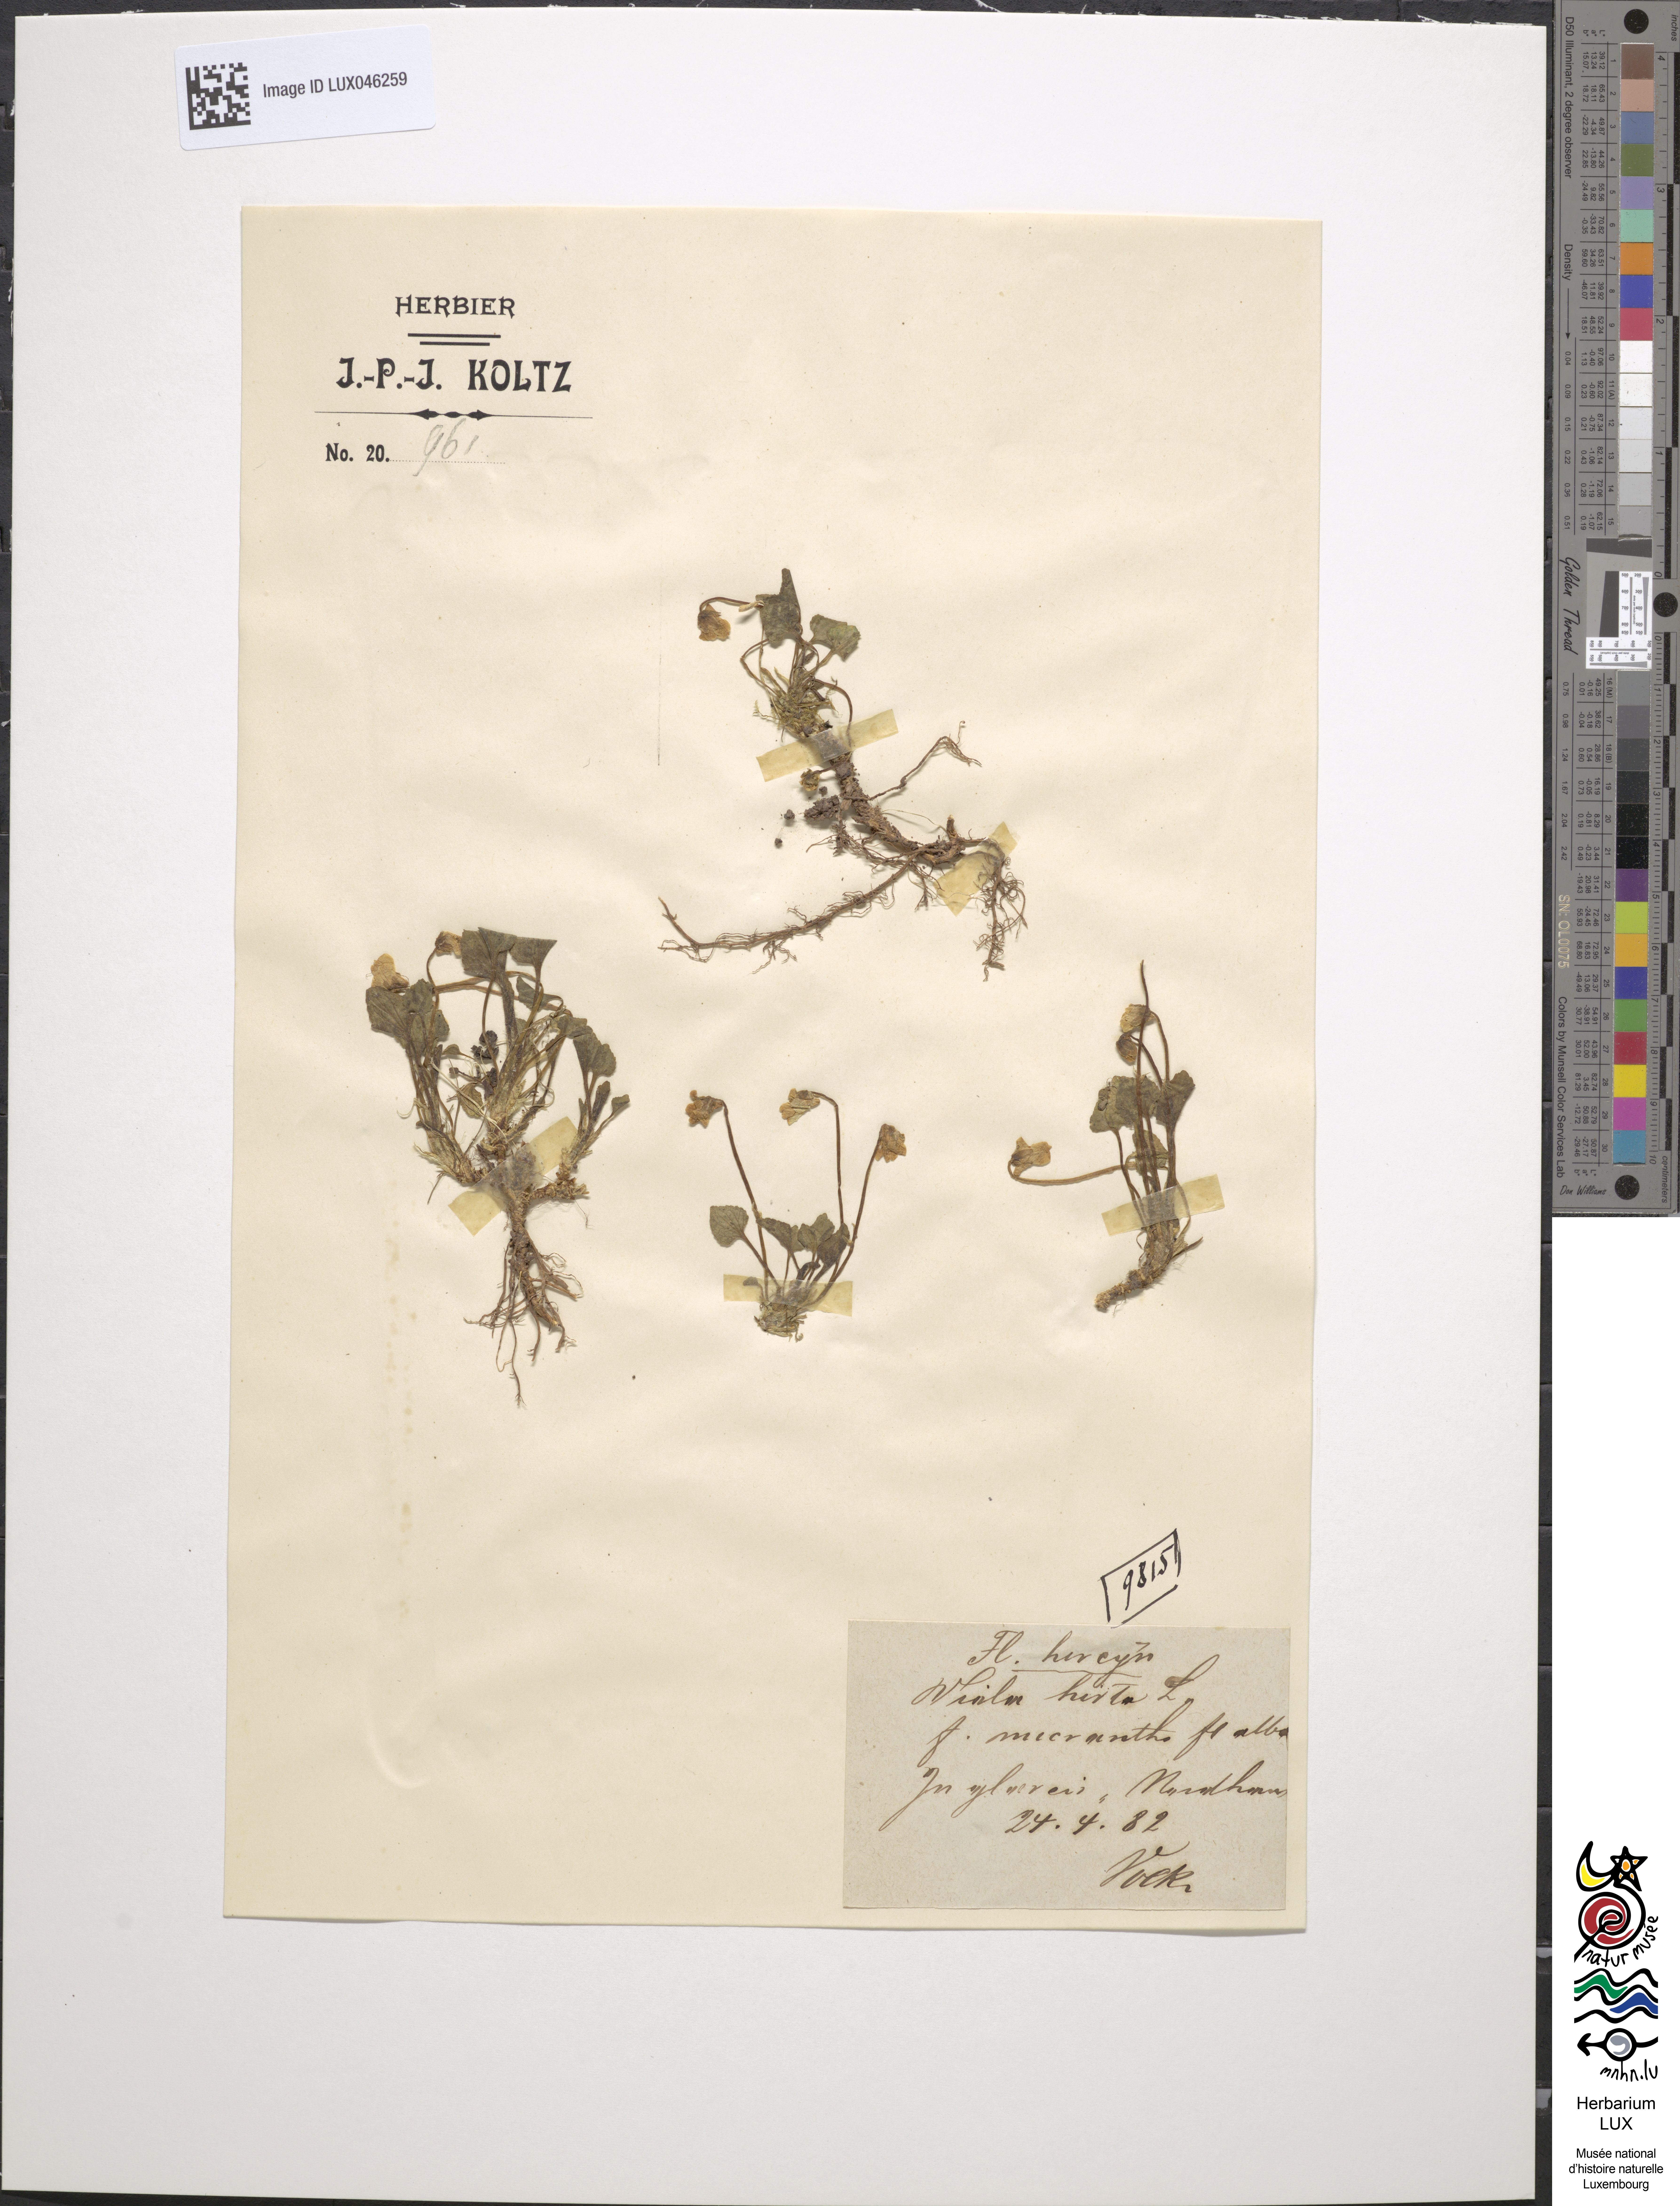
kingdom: Plantae
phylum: Tracheophyta
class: Magnoliopsida
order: Malpighiales
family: Violaceae
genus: Viola
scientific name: Viola hirta
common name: Hairy violet
